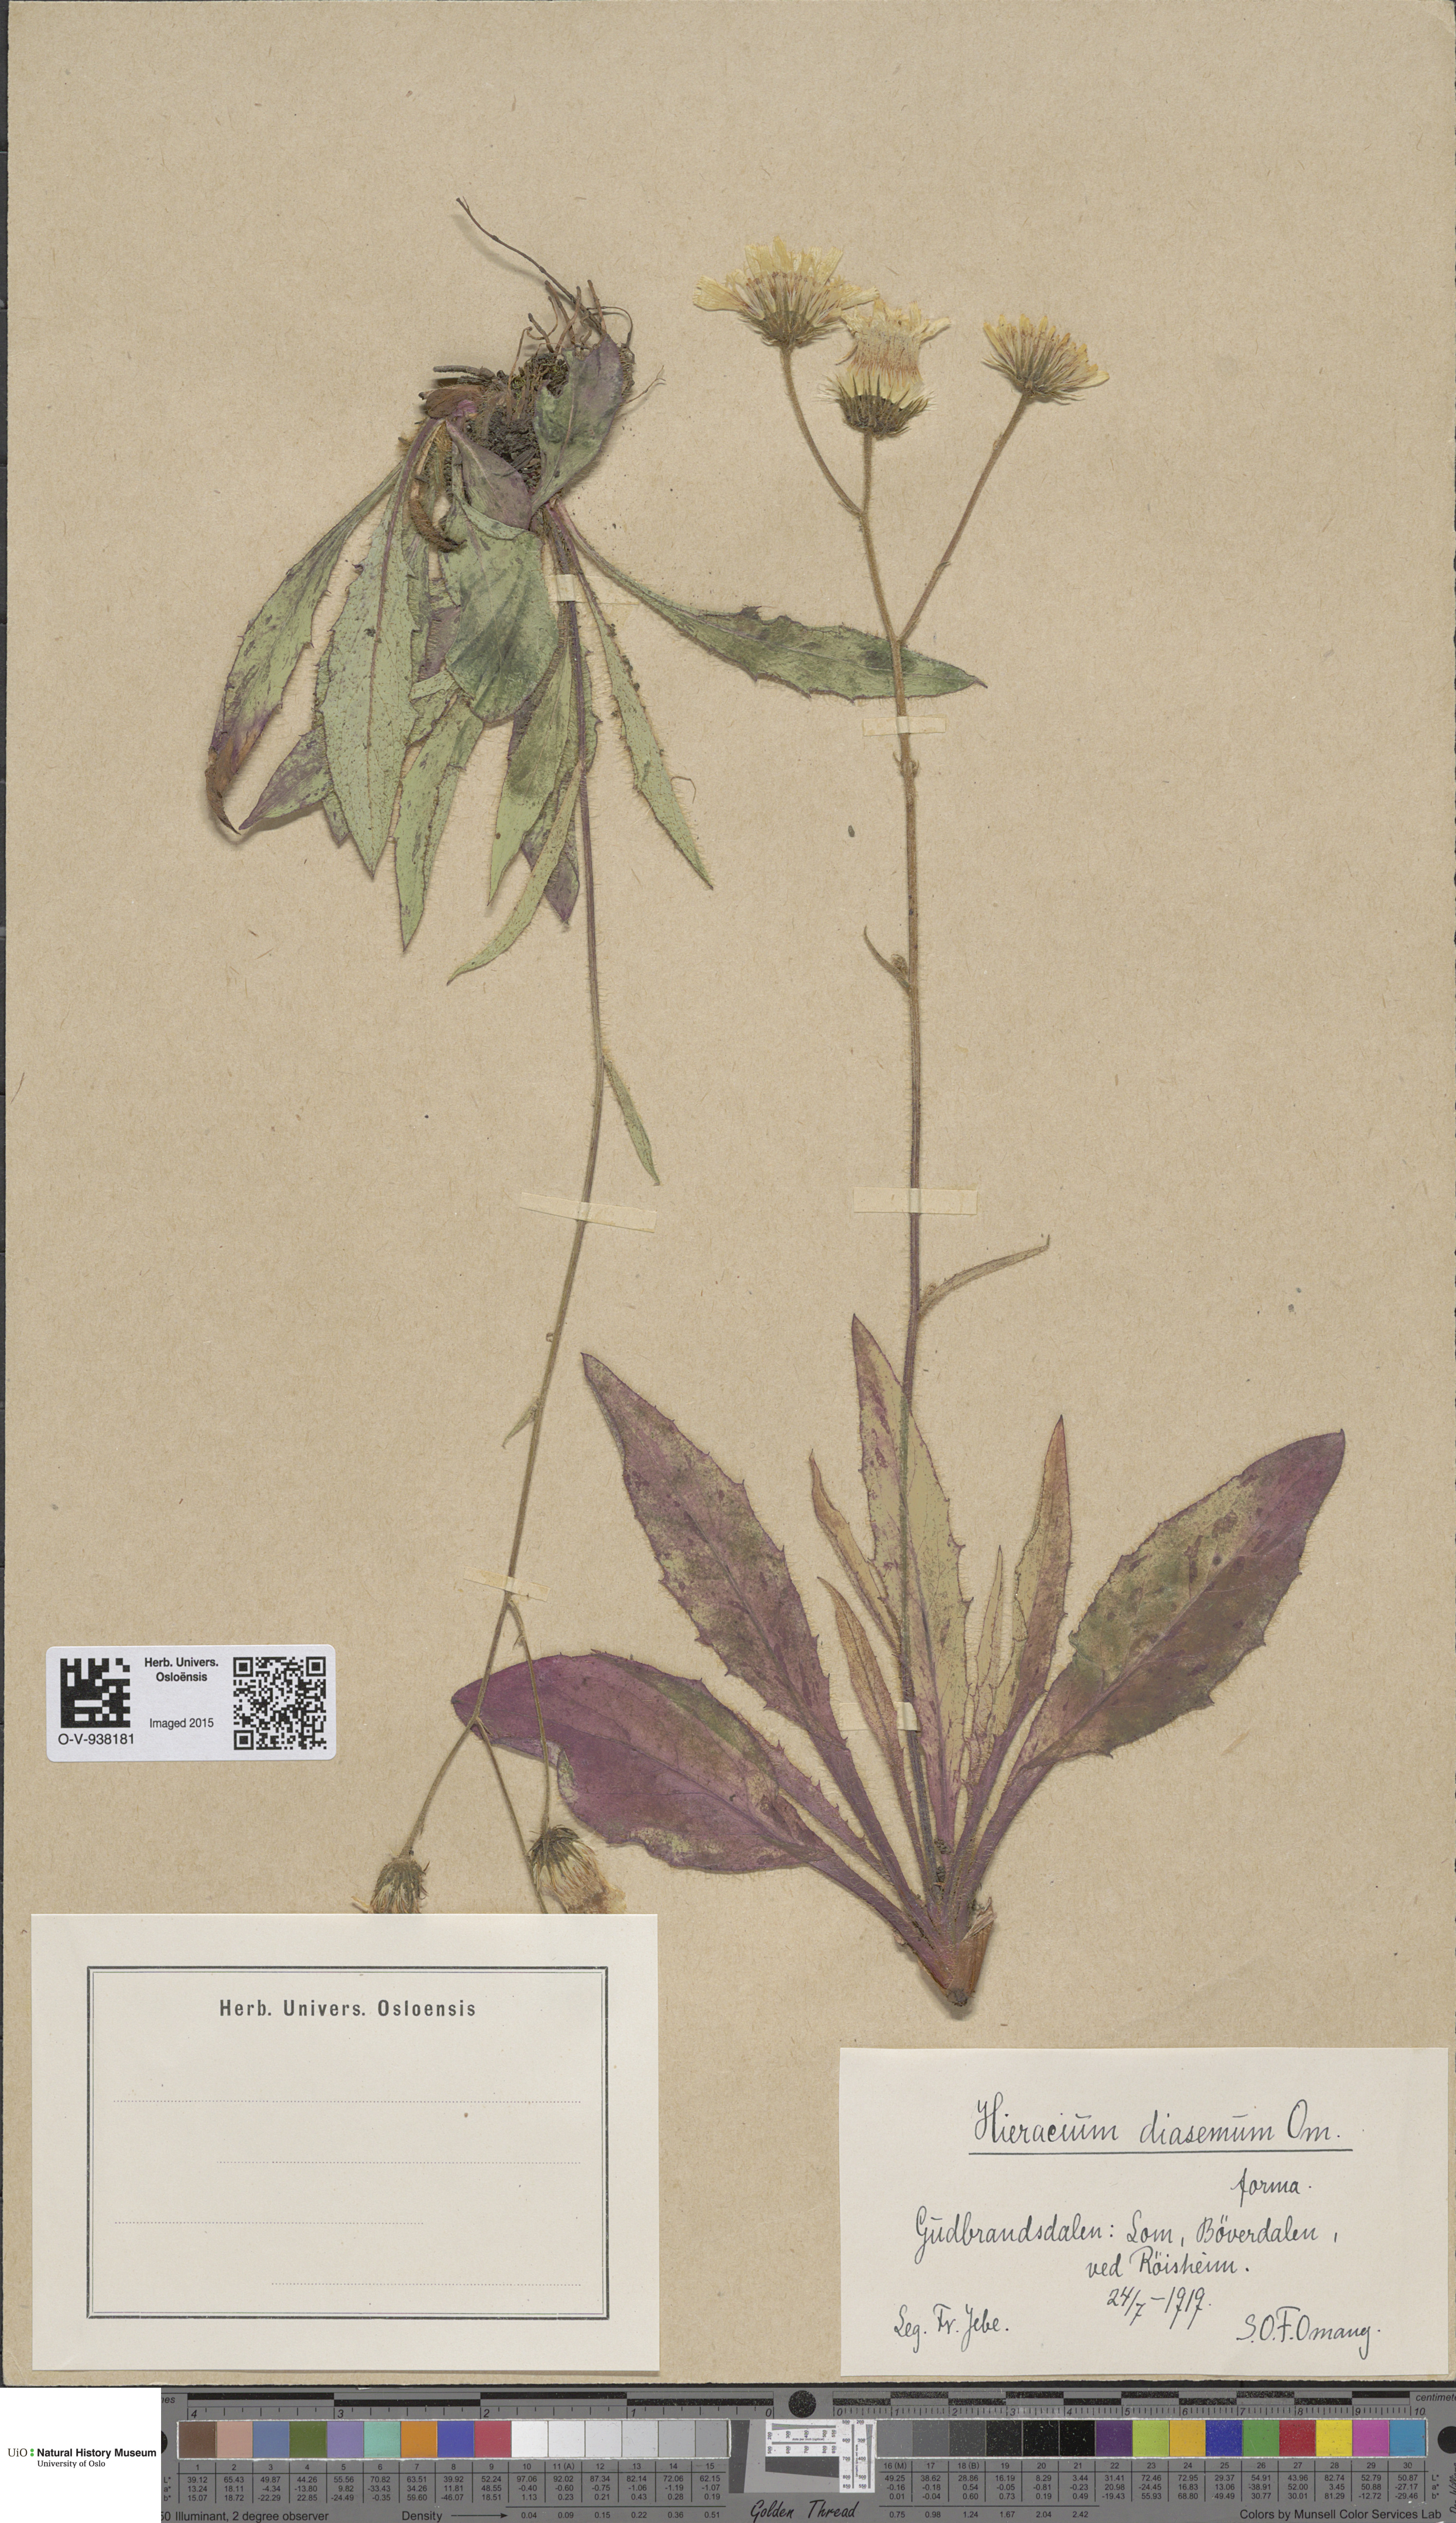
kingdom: Plantae
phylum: Tracheophyta
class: Magnoliopsida
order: Asterales
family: Asteraceae
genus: Hieracium
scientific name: Hieracium saxifragum
